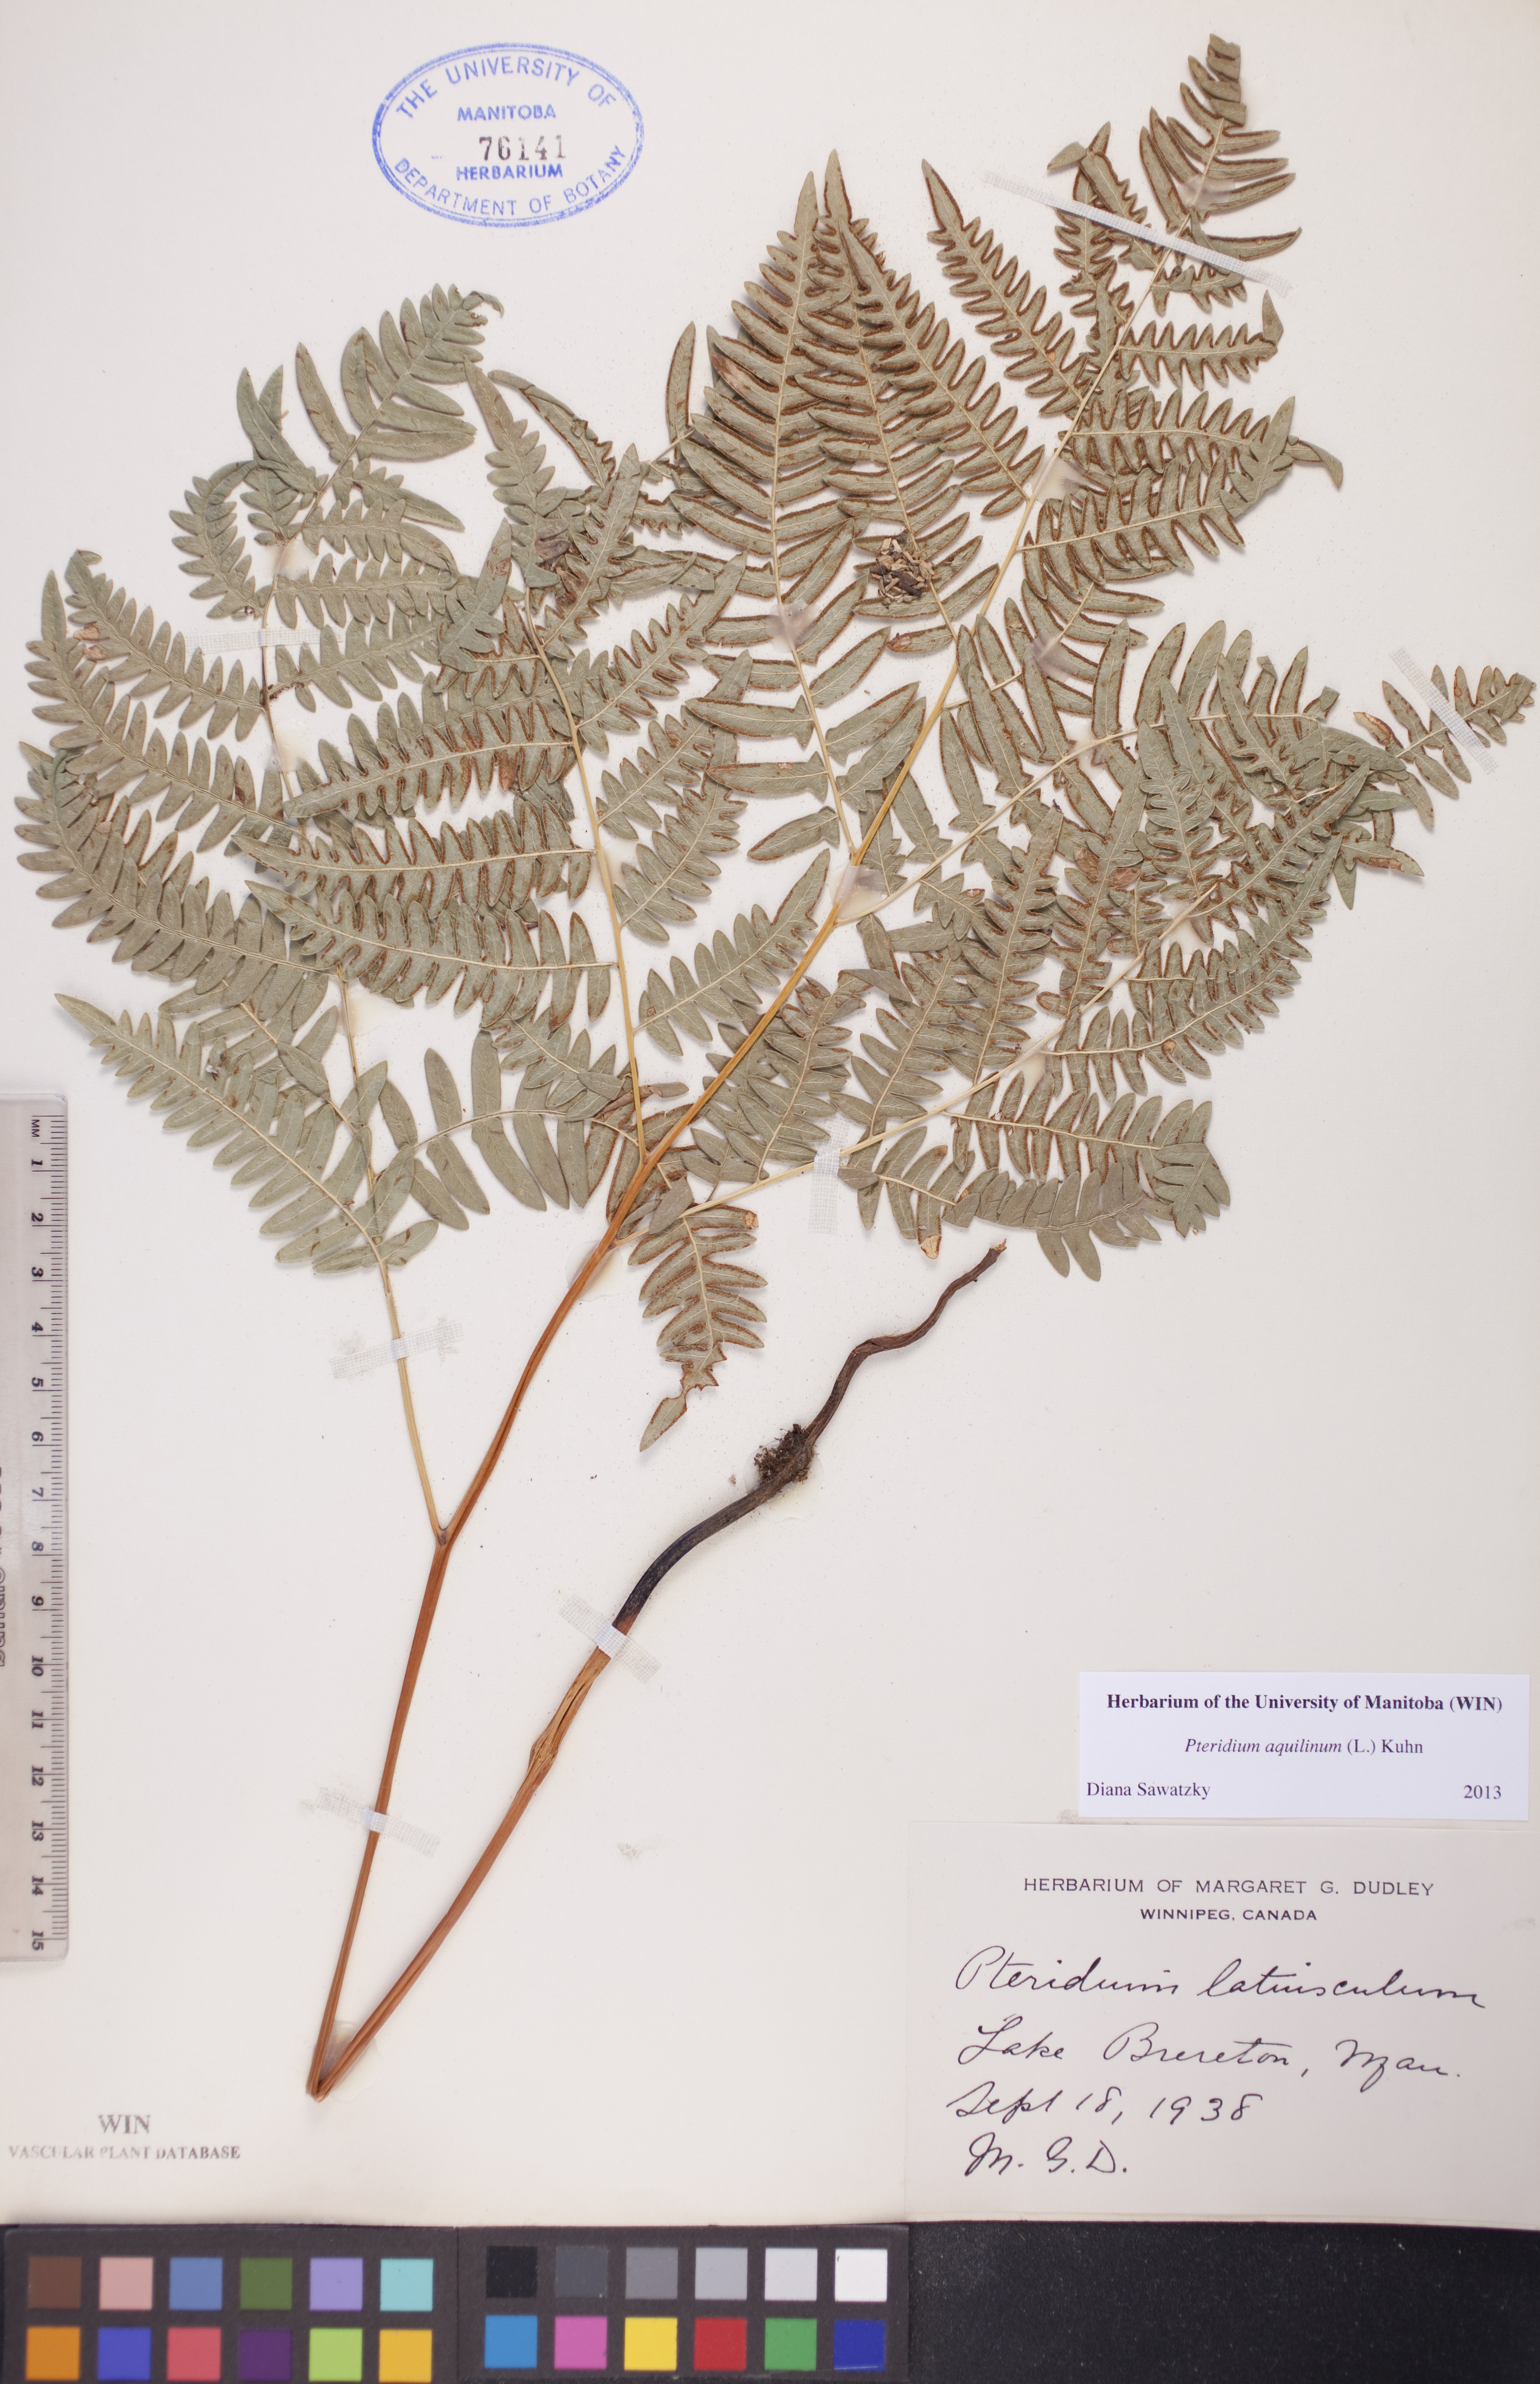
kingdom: Plantae
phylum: Tracheophyta
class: Polypodiopsida
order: Polypodiales
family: Dennstaedtiaceae
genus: Pteridium
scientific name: Pteridium aquilinum
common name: Bracken
